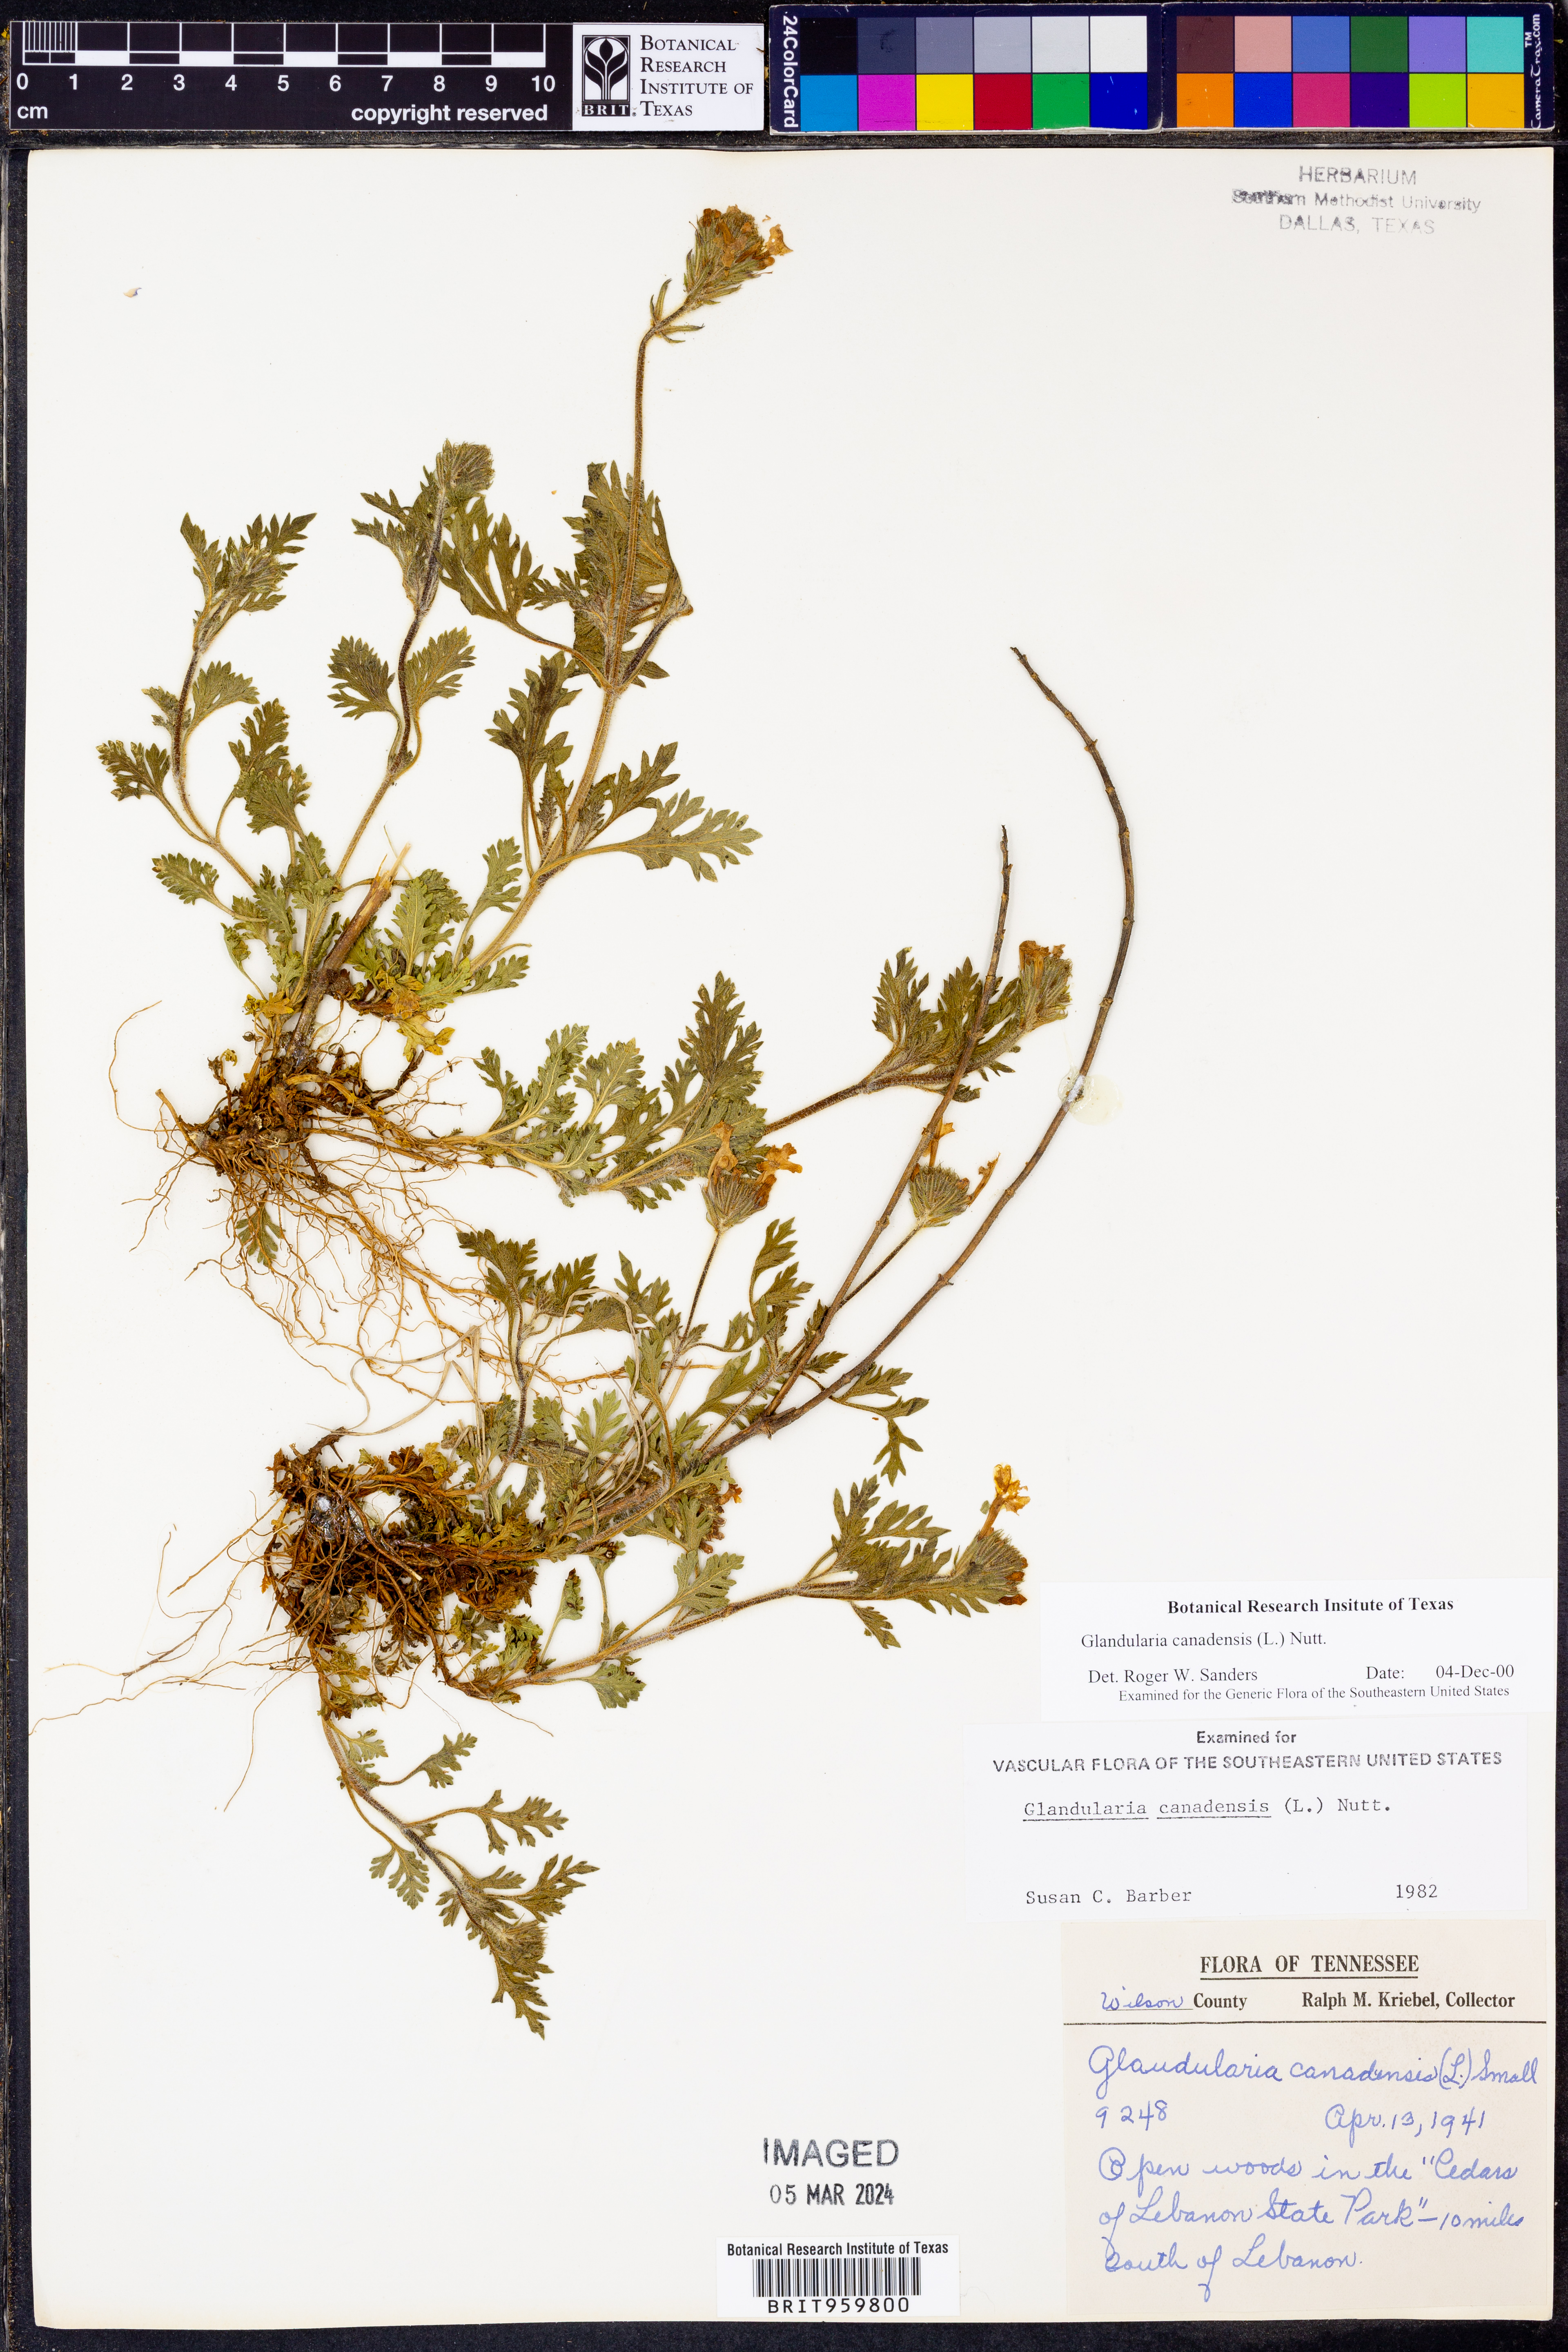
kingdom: Plantae
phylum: Tracheophyta
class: Magnoliopsida
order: Lamiales
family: Verbenaceae
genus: Verbena
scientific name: Verbena canadensis
